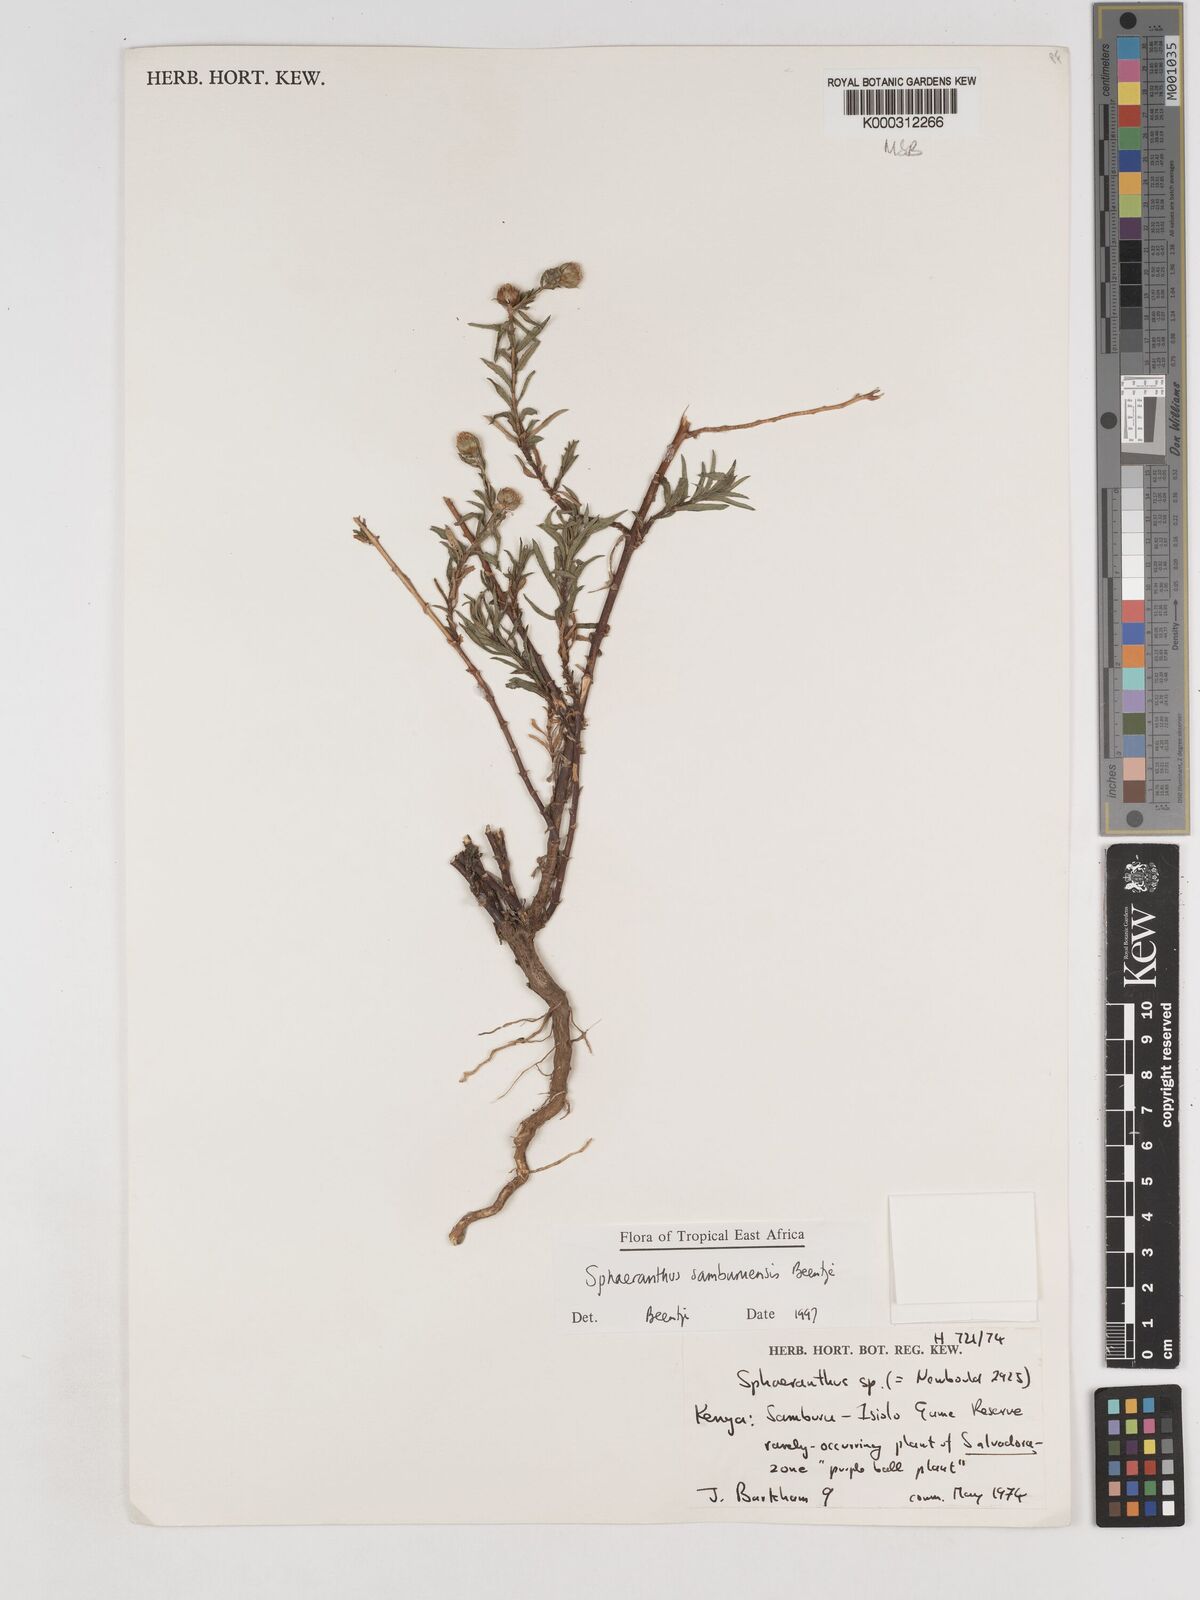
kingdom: Plantae
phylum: Tracheophyta
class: Magnoliopsida
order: Asterales
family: Asteraceae
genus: Sphaeranthus
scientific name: Sphaeranthus samburuensis
